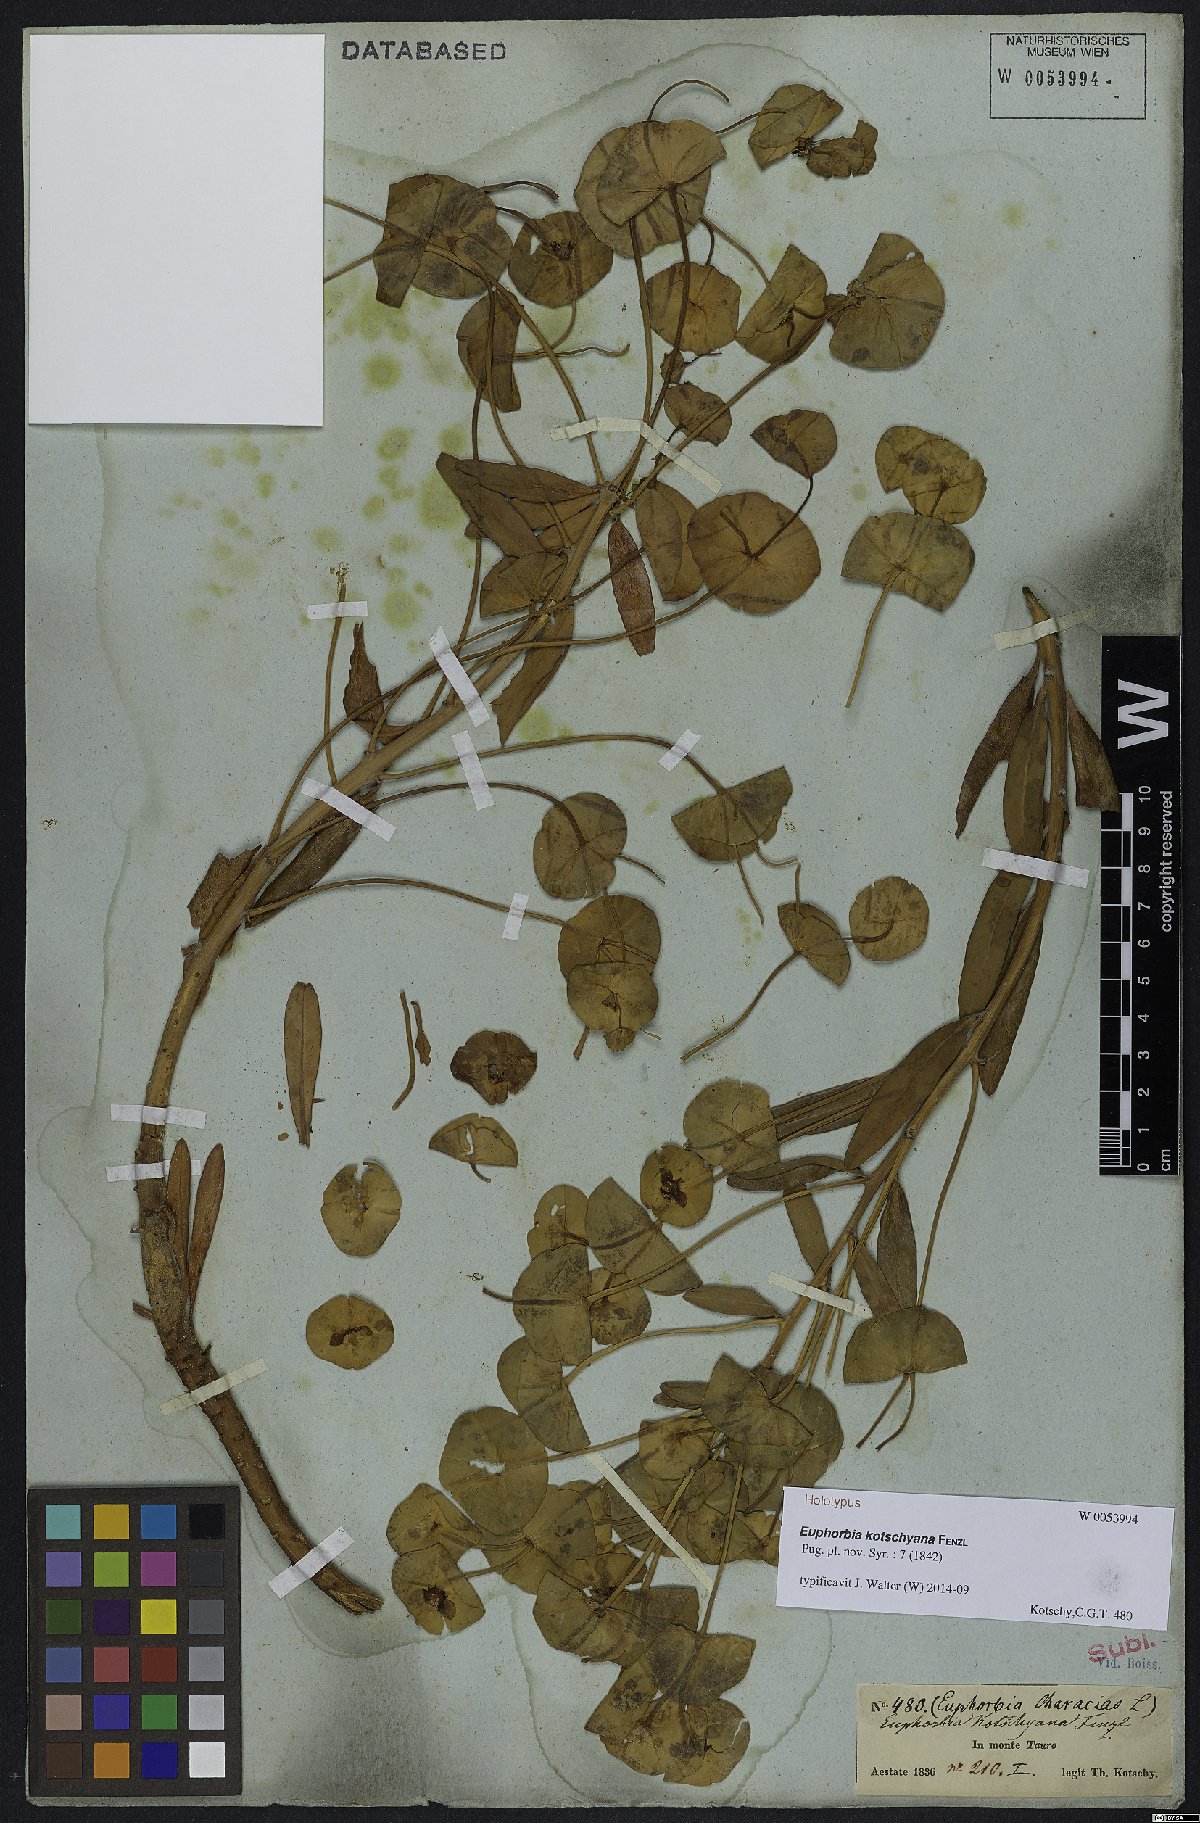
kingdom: Plantae
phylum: Tracheophyta
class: Magnoliopsida
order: Malpighiales
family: Euphorbiaceae
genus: Euphorbia
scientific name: Euphorbia kotschyana
